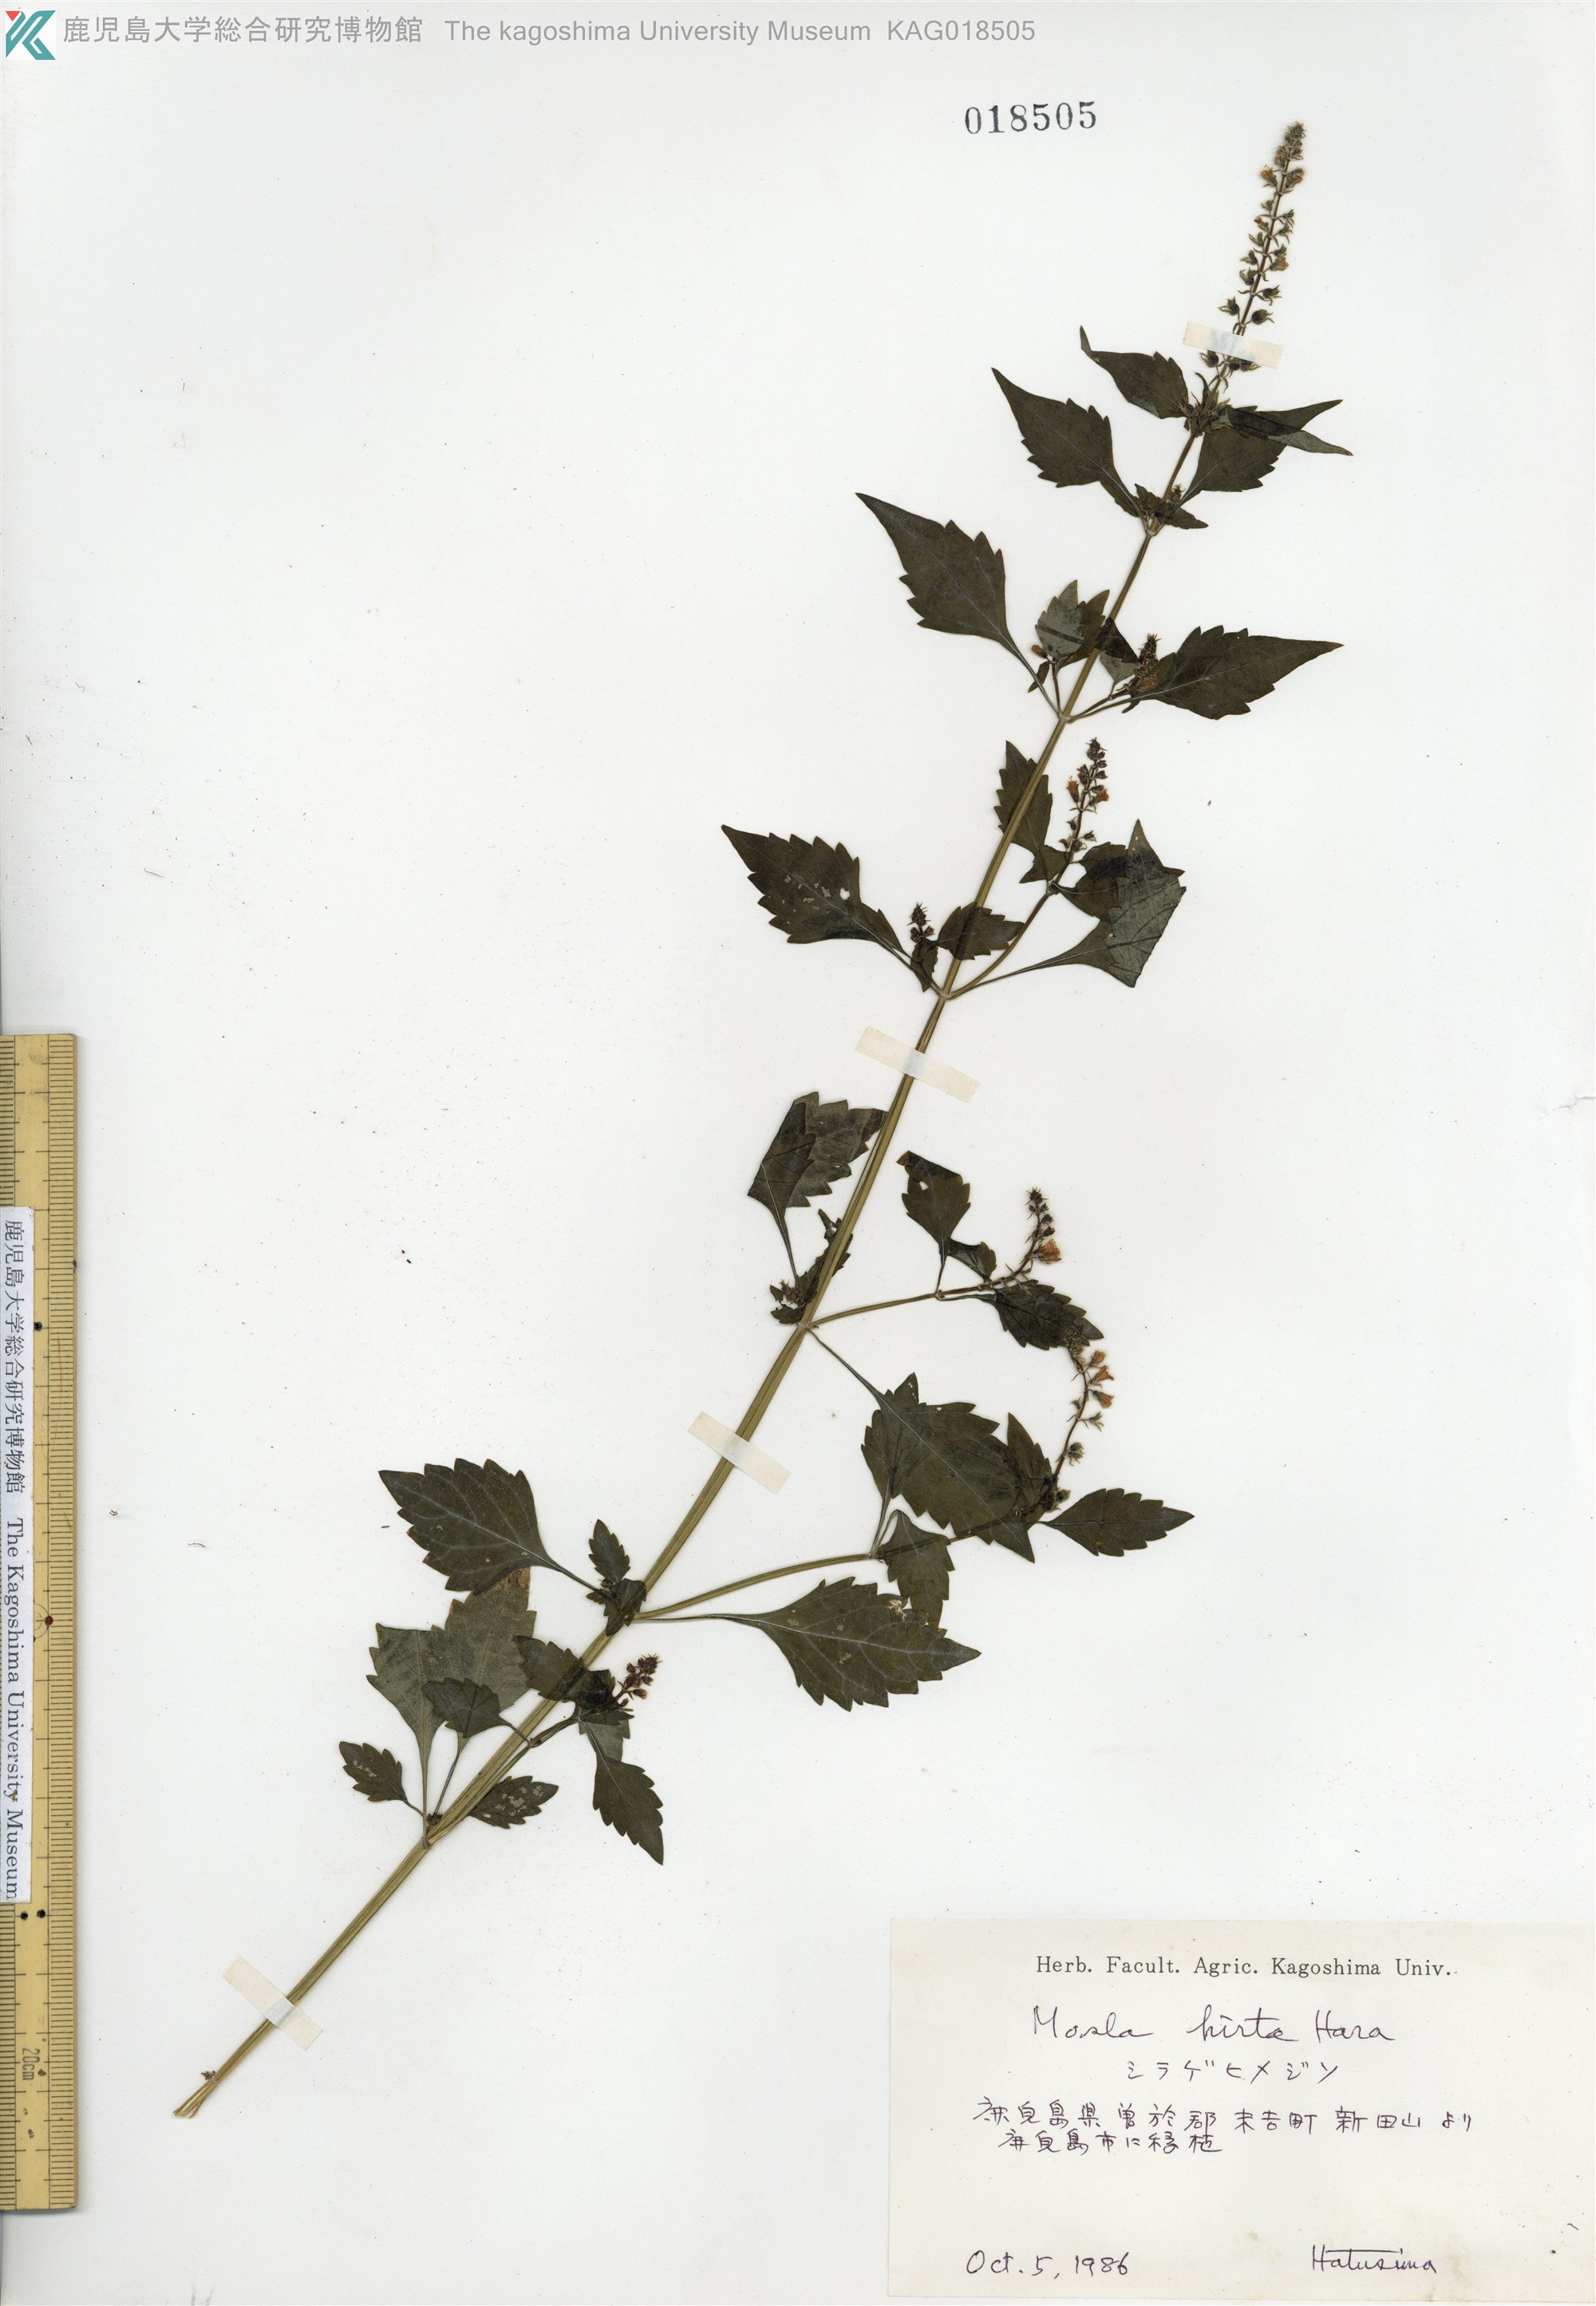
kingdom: Plantae
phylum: Tracheophyta
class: Magnoliopsida
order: Lamiales
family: Lamiaceae
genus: Mosla
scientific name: Mosla dianthera
